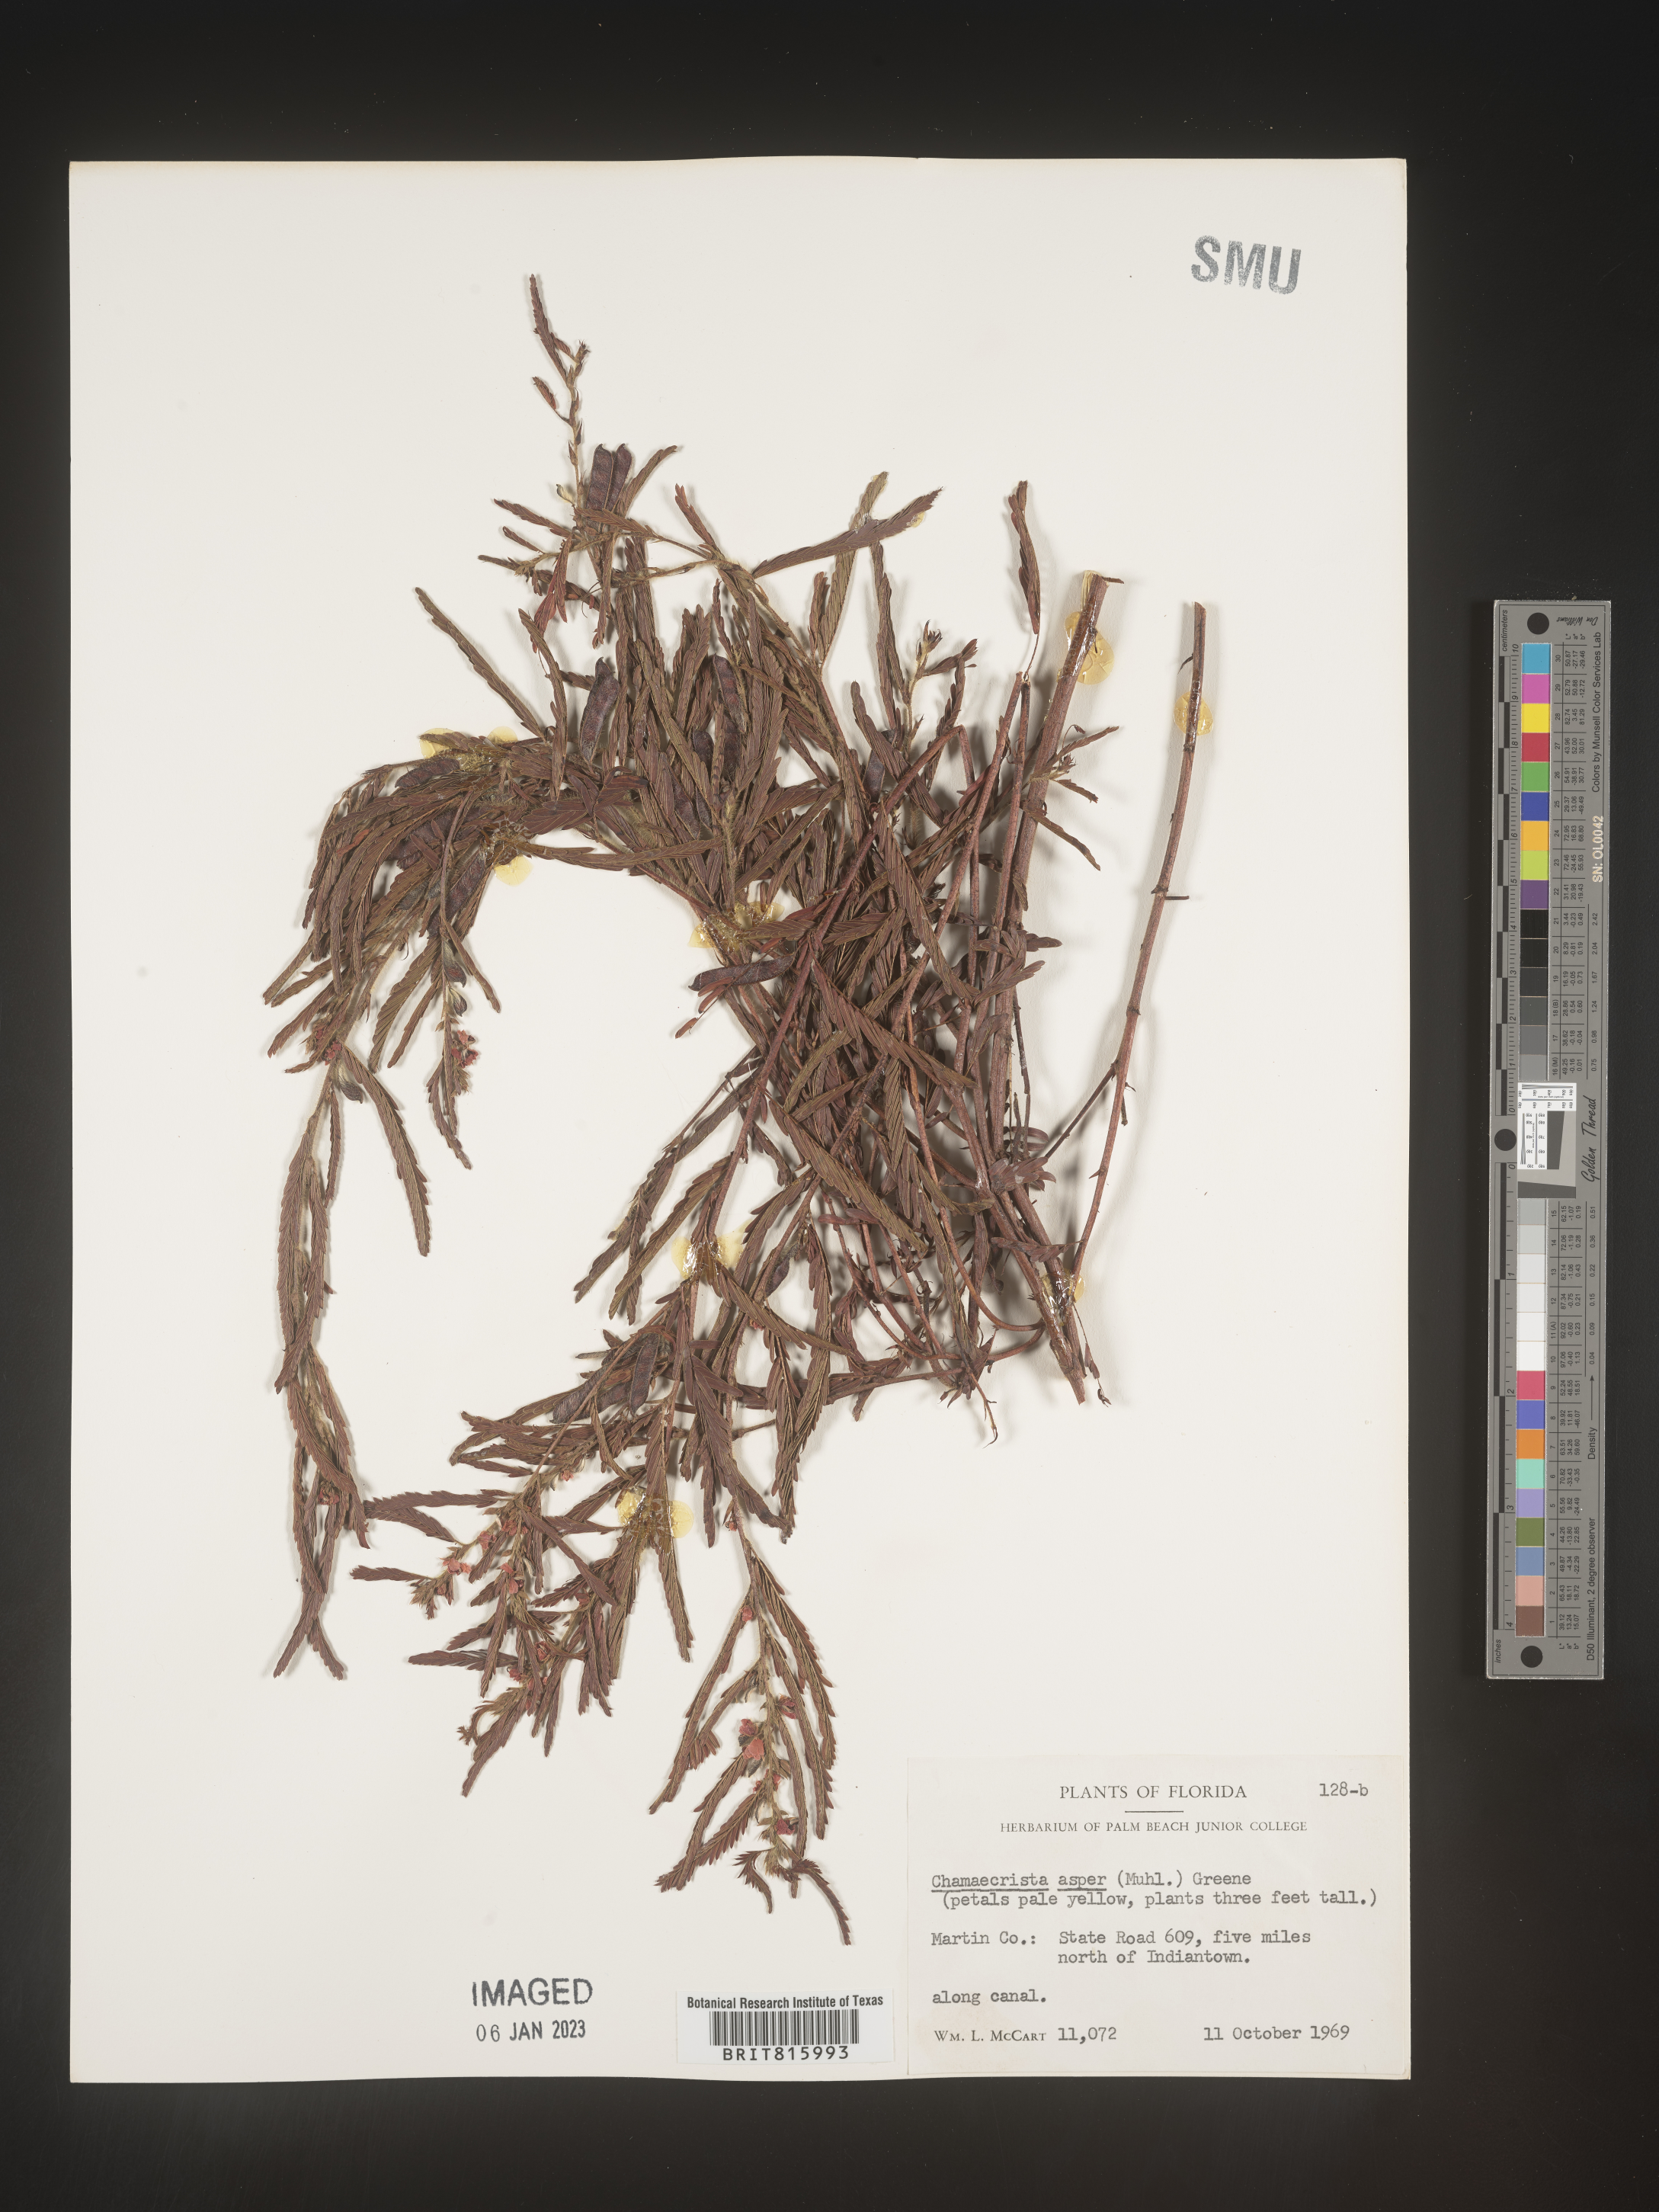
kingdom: Plantae
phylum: Tracheophyta
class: Magnoliopsida
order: Fabales
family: Fabaceae
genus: Chamaecrista
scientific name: Chamaecrista
